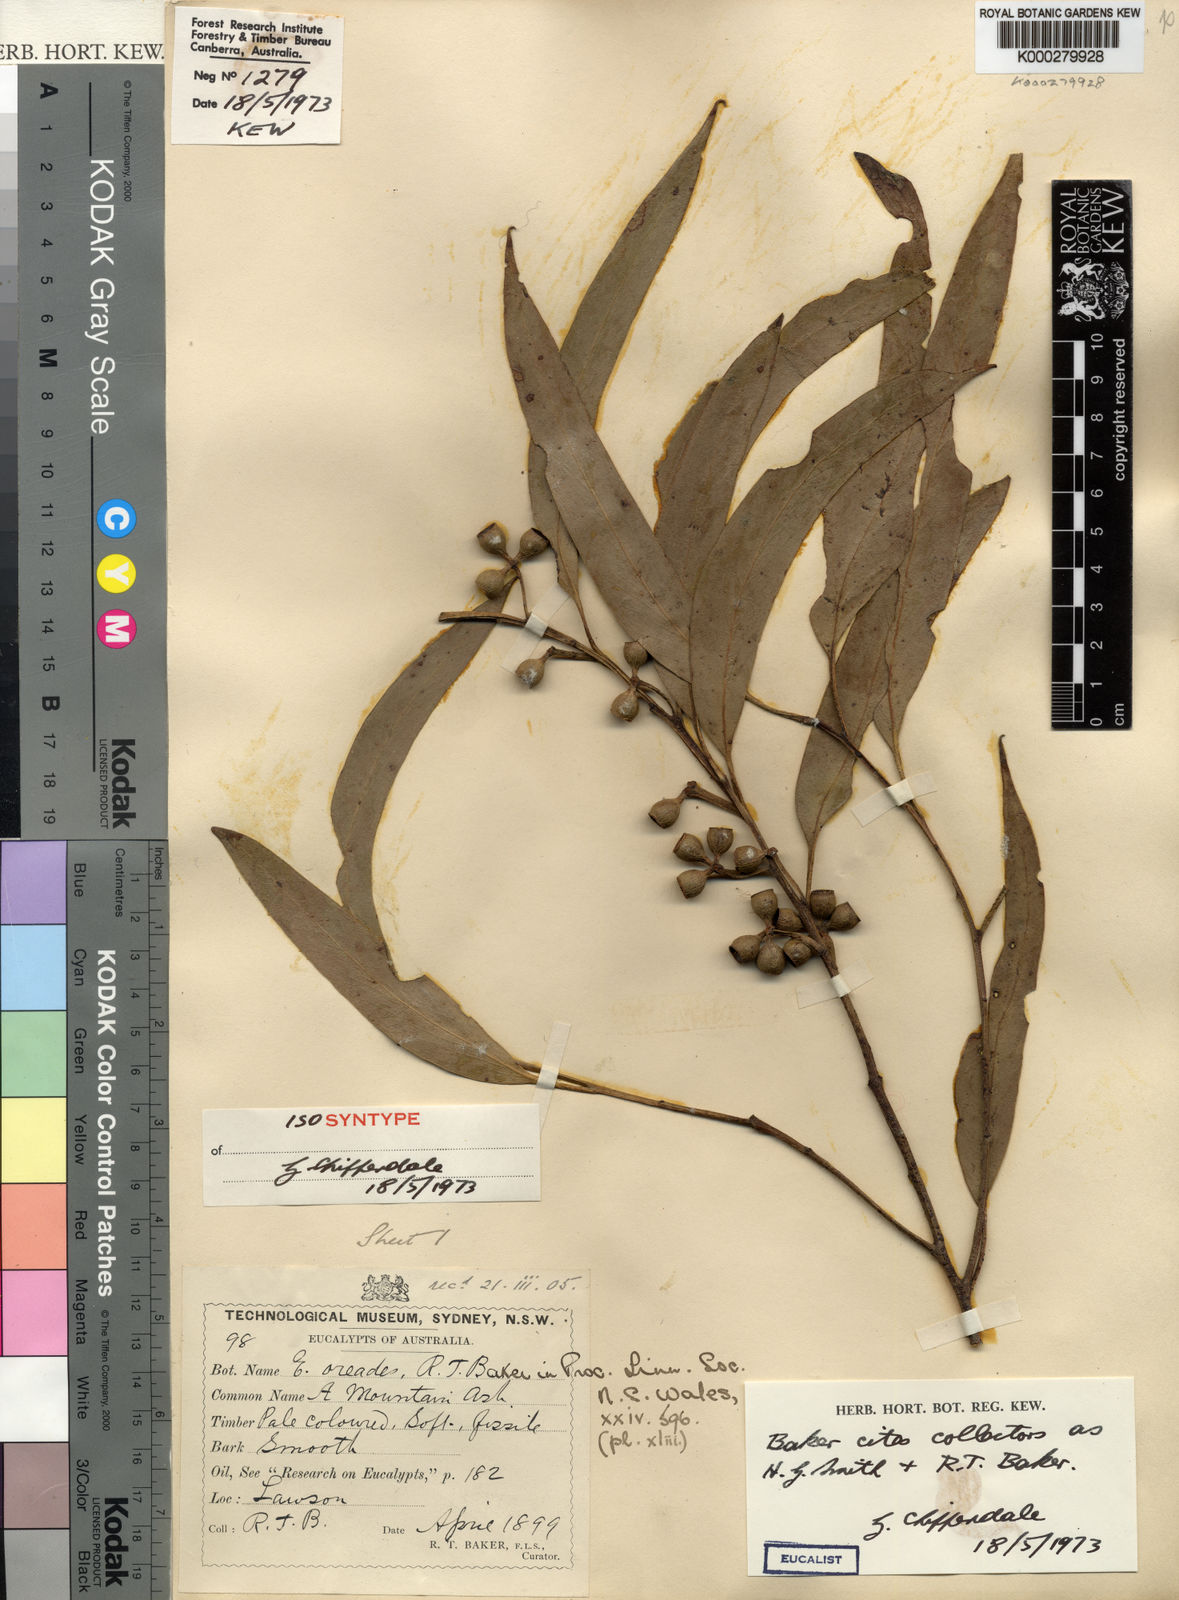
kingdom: Plantae
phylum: Tracheophyta
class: Magnoliopsida
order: Myrtales
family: Myrtaceae
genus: Eucalyptus
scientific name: Eucalyptus oreades
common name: White-ash
